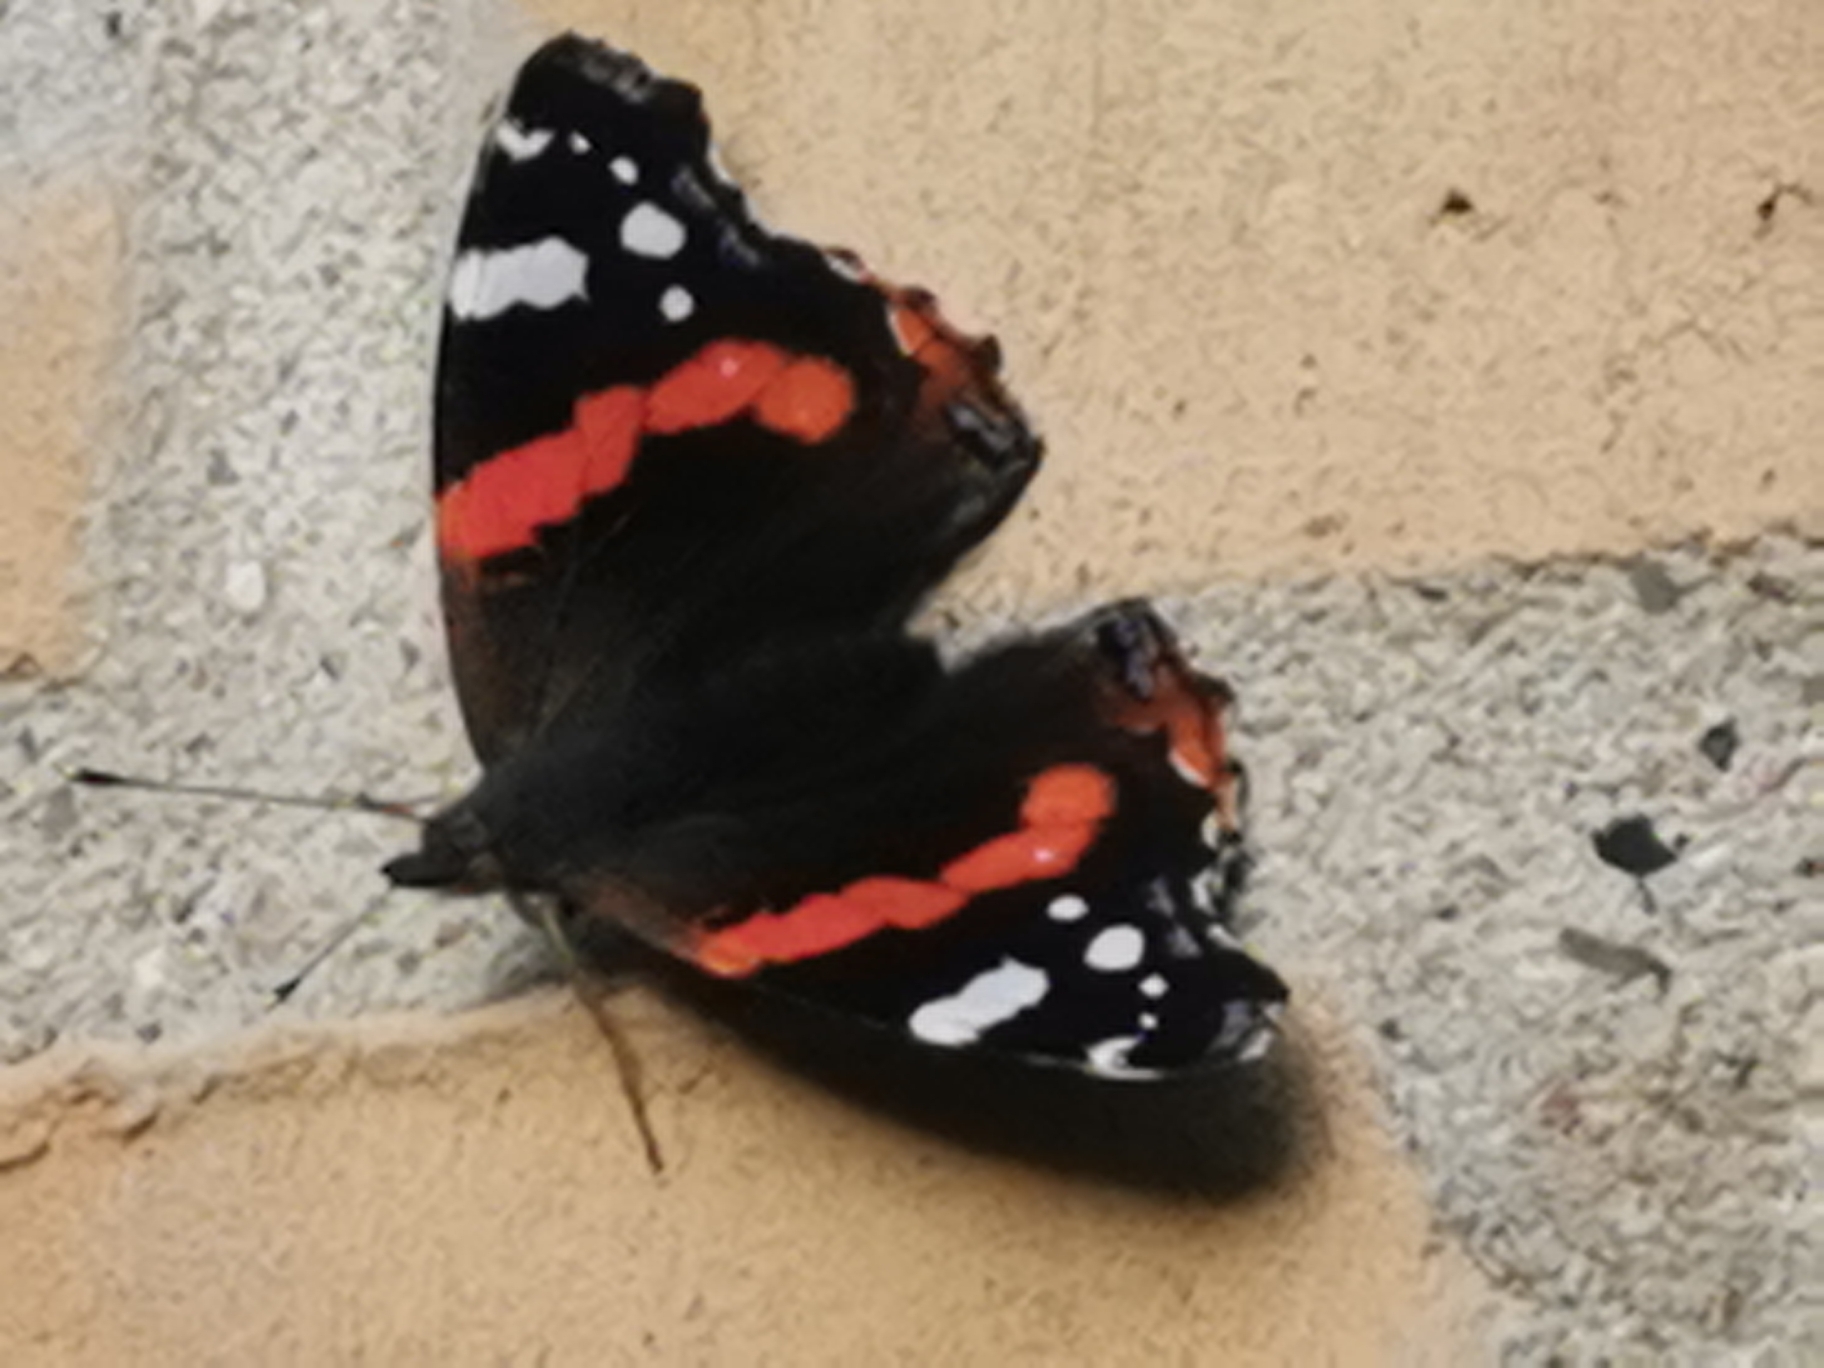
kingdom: Animalia
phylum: Arthropoda
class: Insecta
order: Lepidoptera
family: Nymphalidae
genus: Vanessa
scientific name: Vanessa atalanta
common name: Admiral
